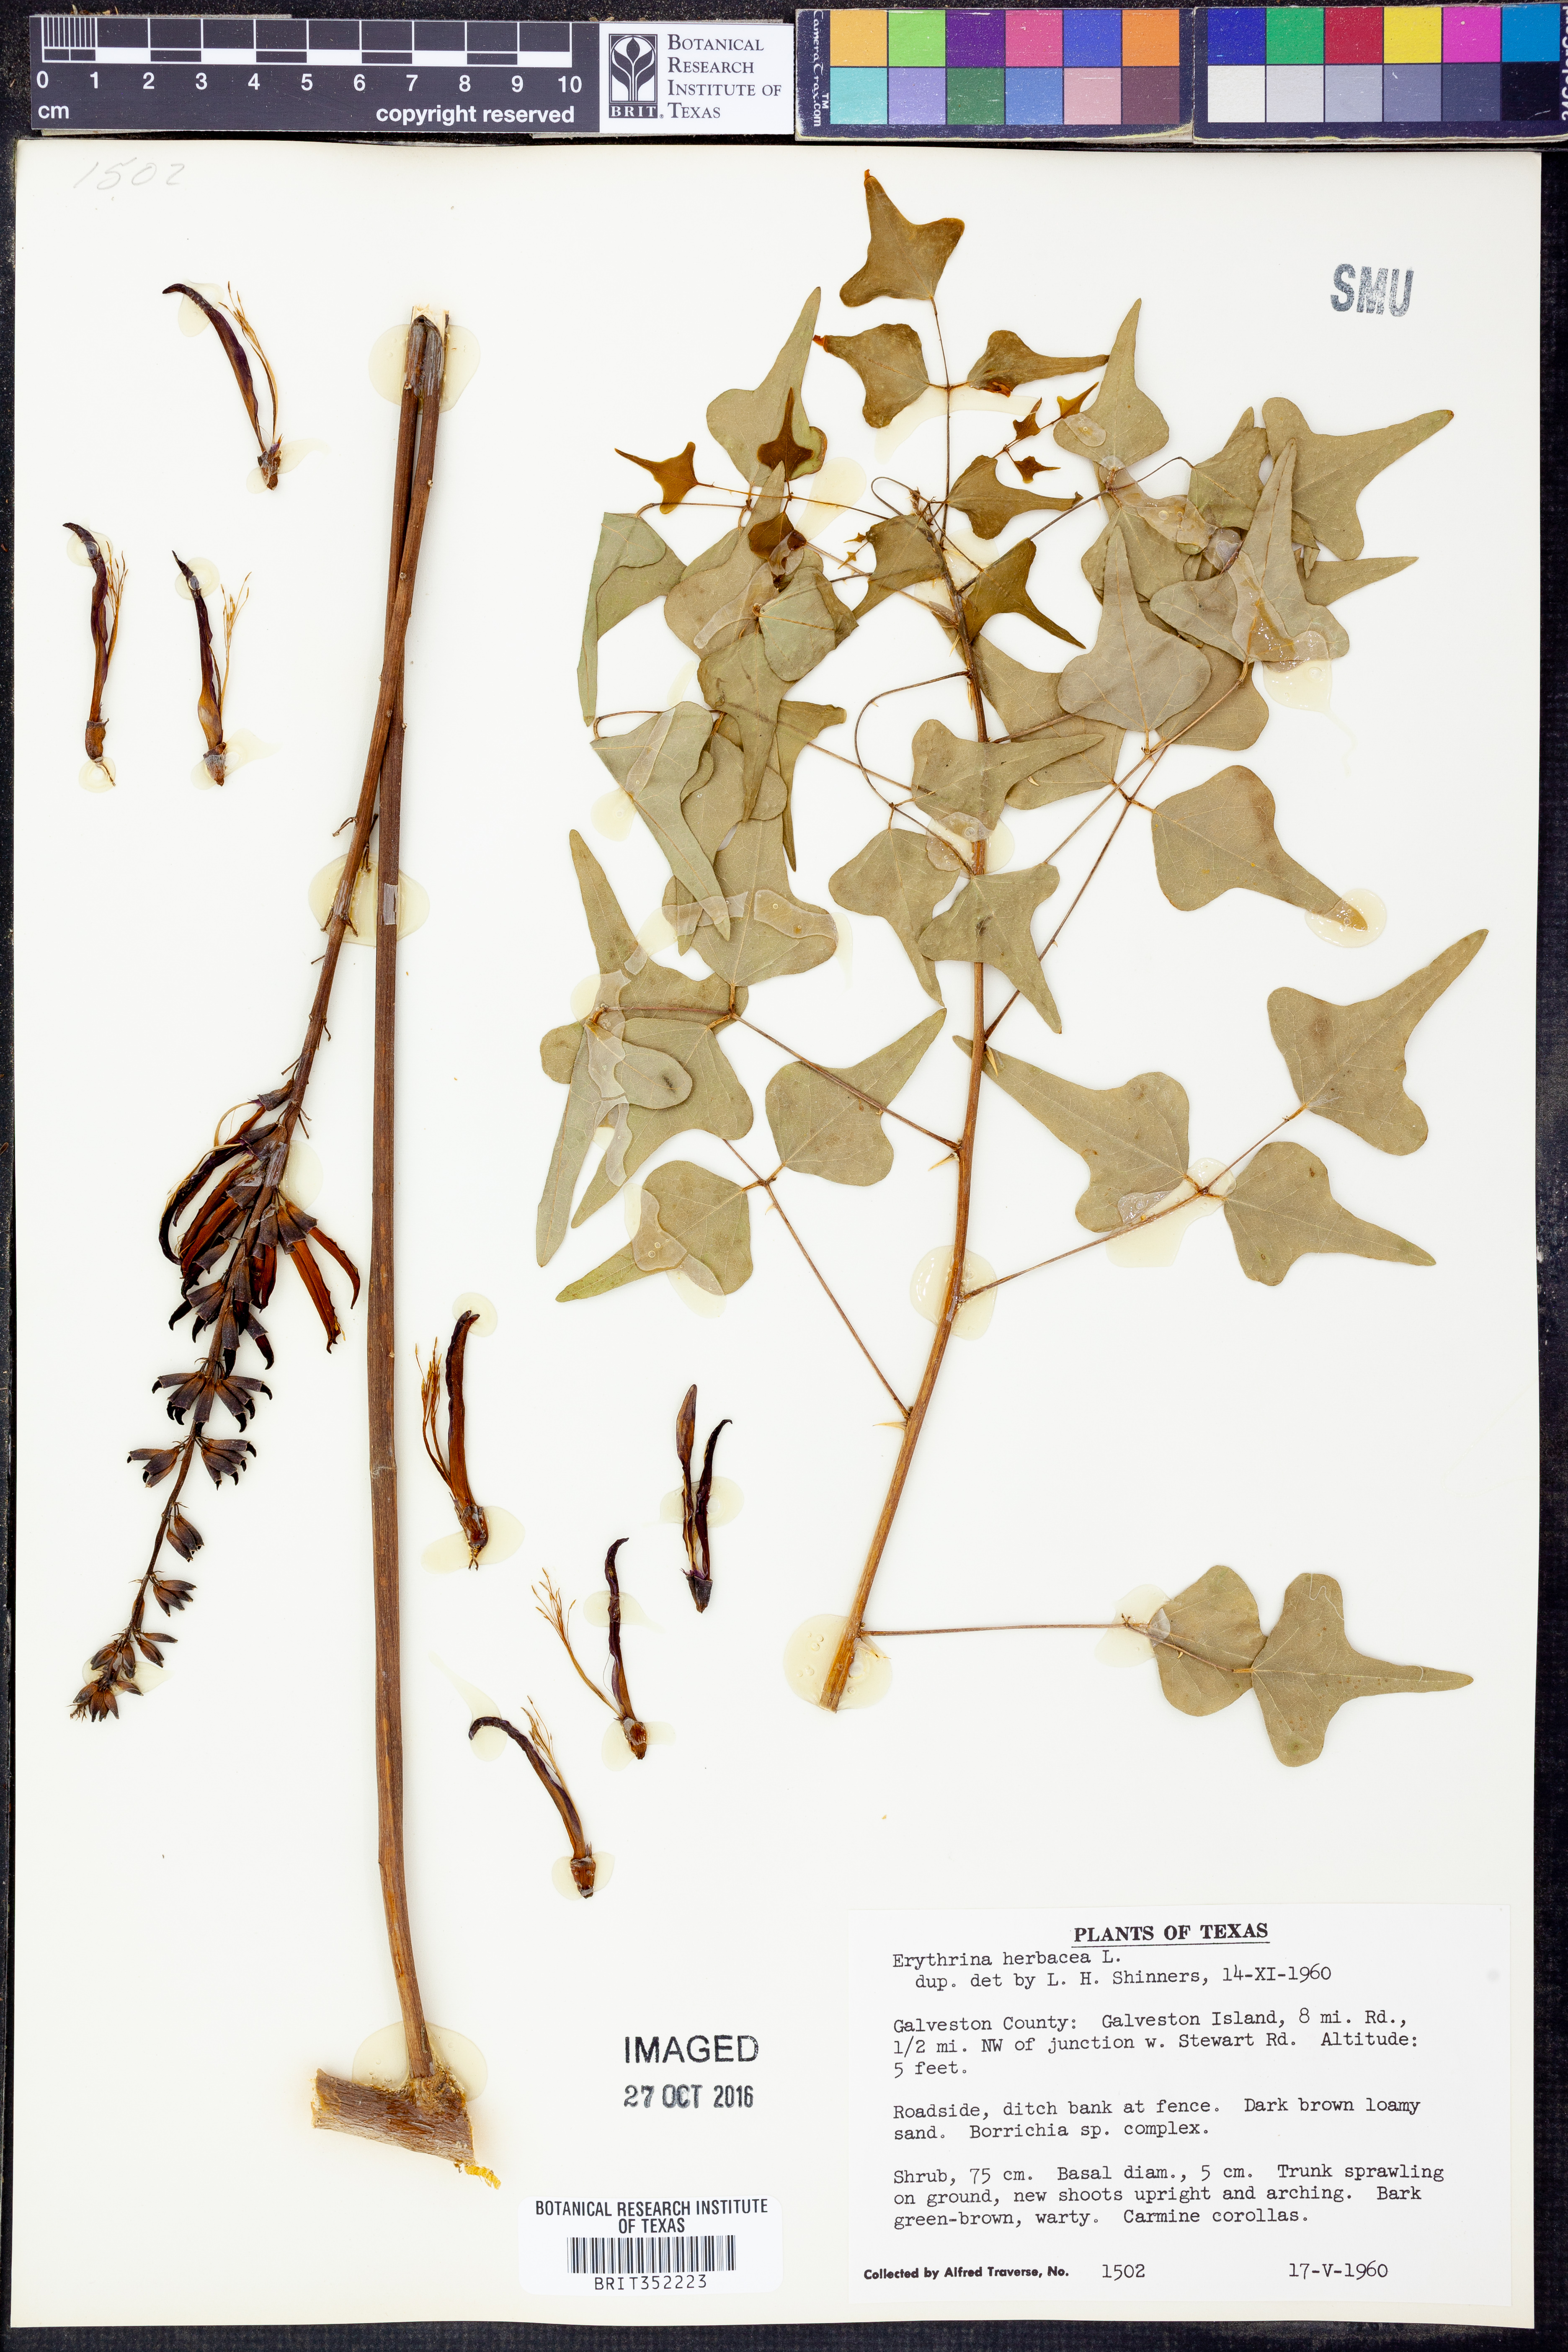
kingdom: Plantae
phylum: Tracheophyta
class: Magnoliopsida
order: Fabales
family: Fabaceae
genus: Erythrina
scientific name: Erythrina herbacea
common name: Coral-bean
